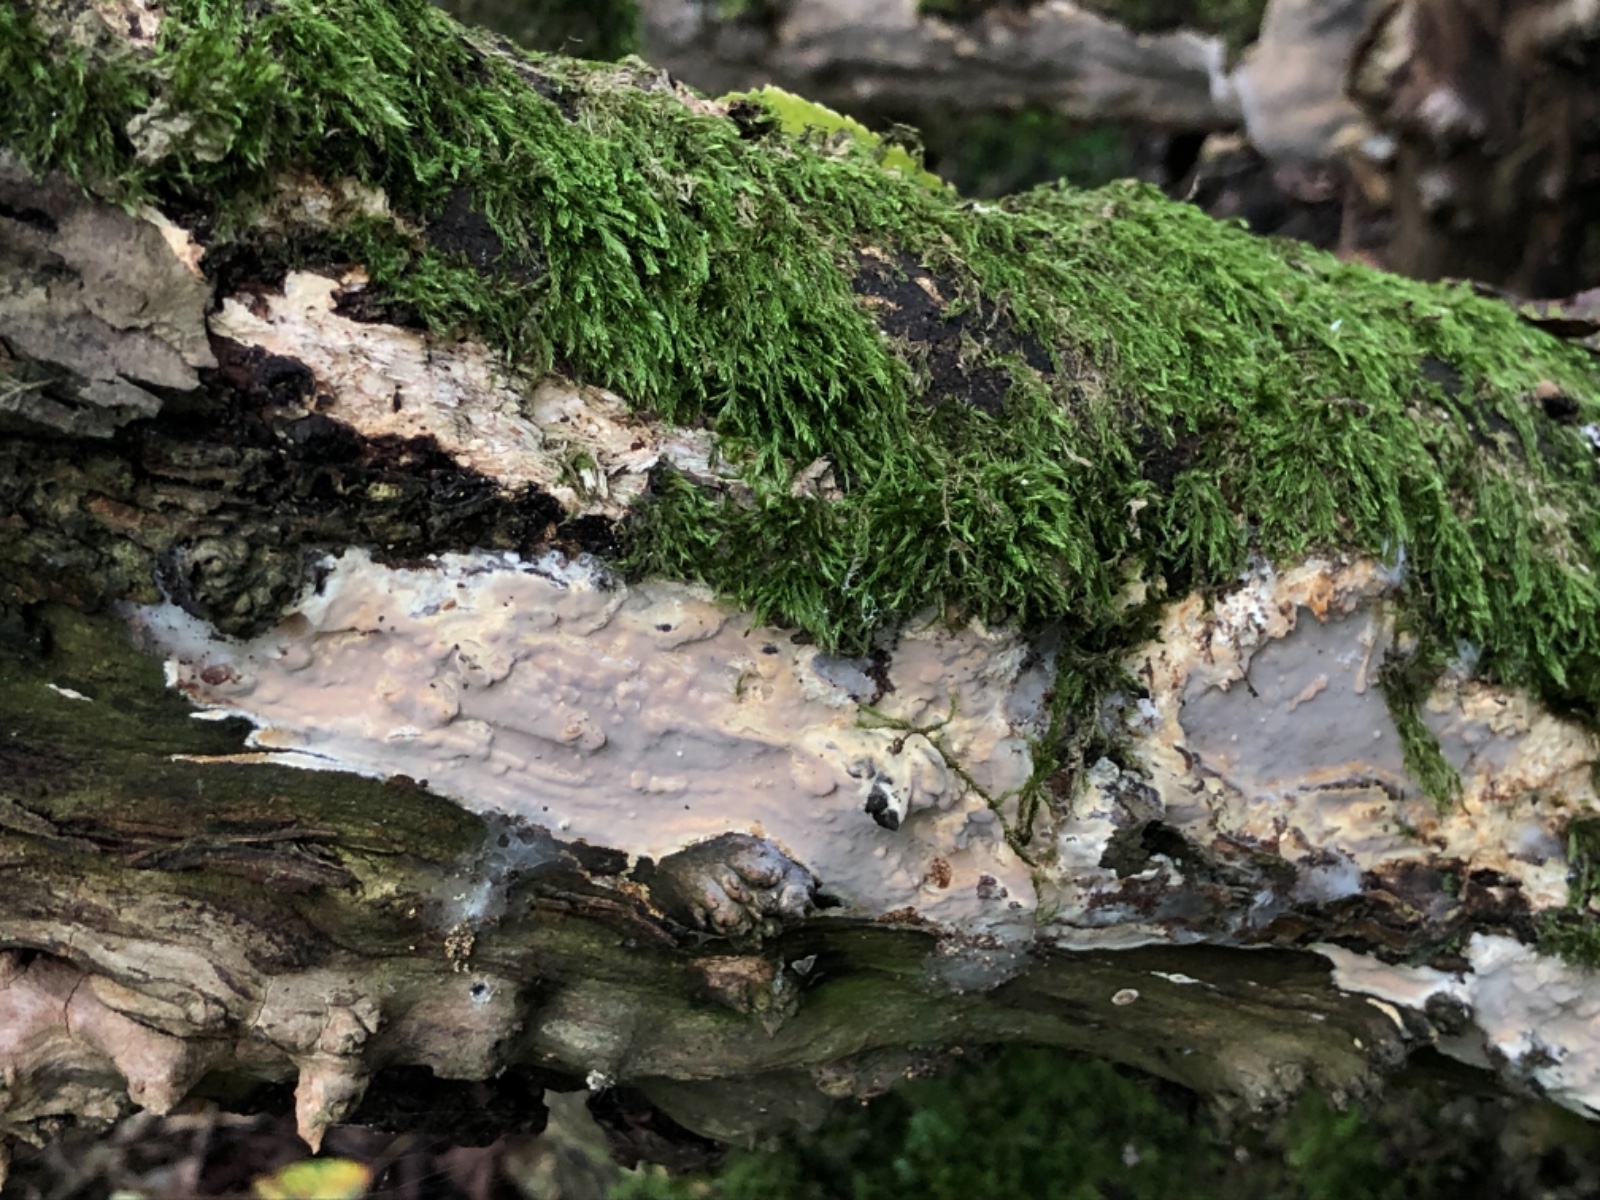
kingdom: Fungi
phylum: Basidiomycota
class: Agaricomycetes
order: Russulales
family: Peniophoraceae
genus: Scytinostroma
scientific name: Scytinostroma hemidichophyticum
